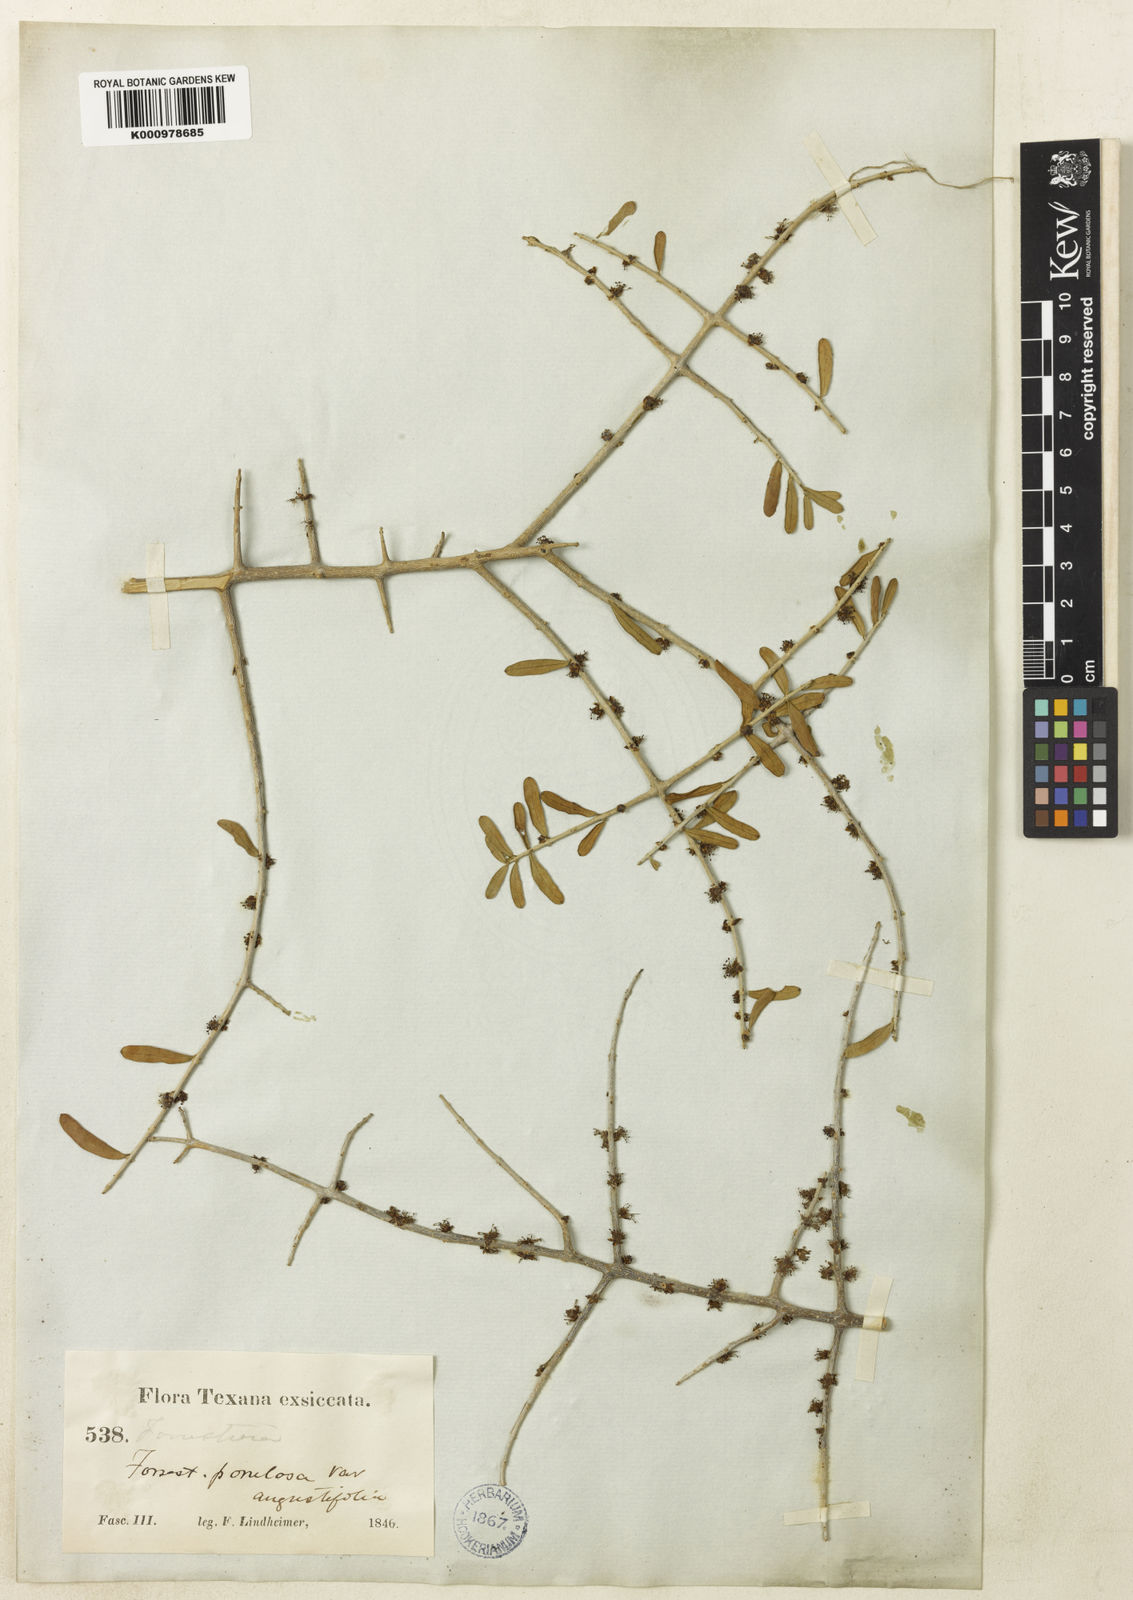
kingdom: Plantae
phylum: Tracheophyta
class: Magnoliopsida
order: Lamiales
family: Oleaceae
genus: Forestiera
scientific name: Forestiera angustifolia
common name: Elbowbush
